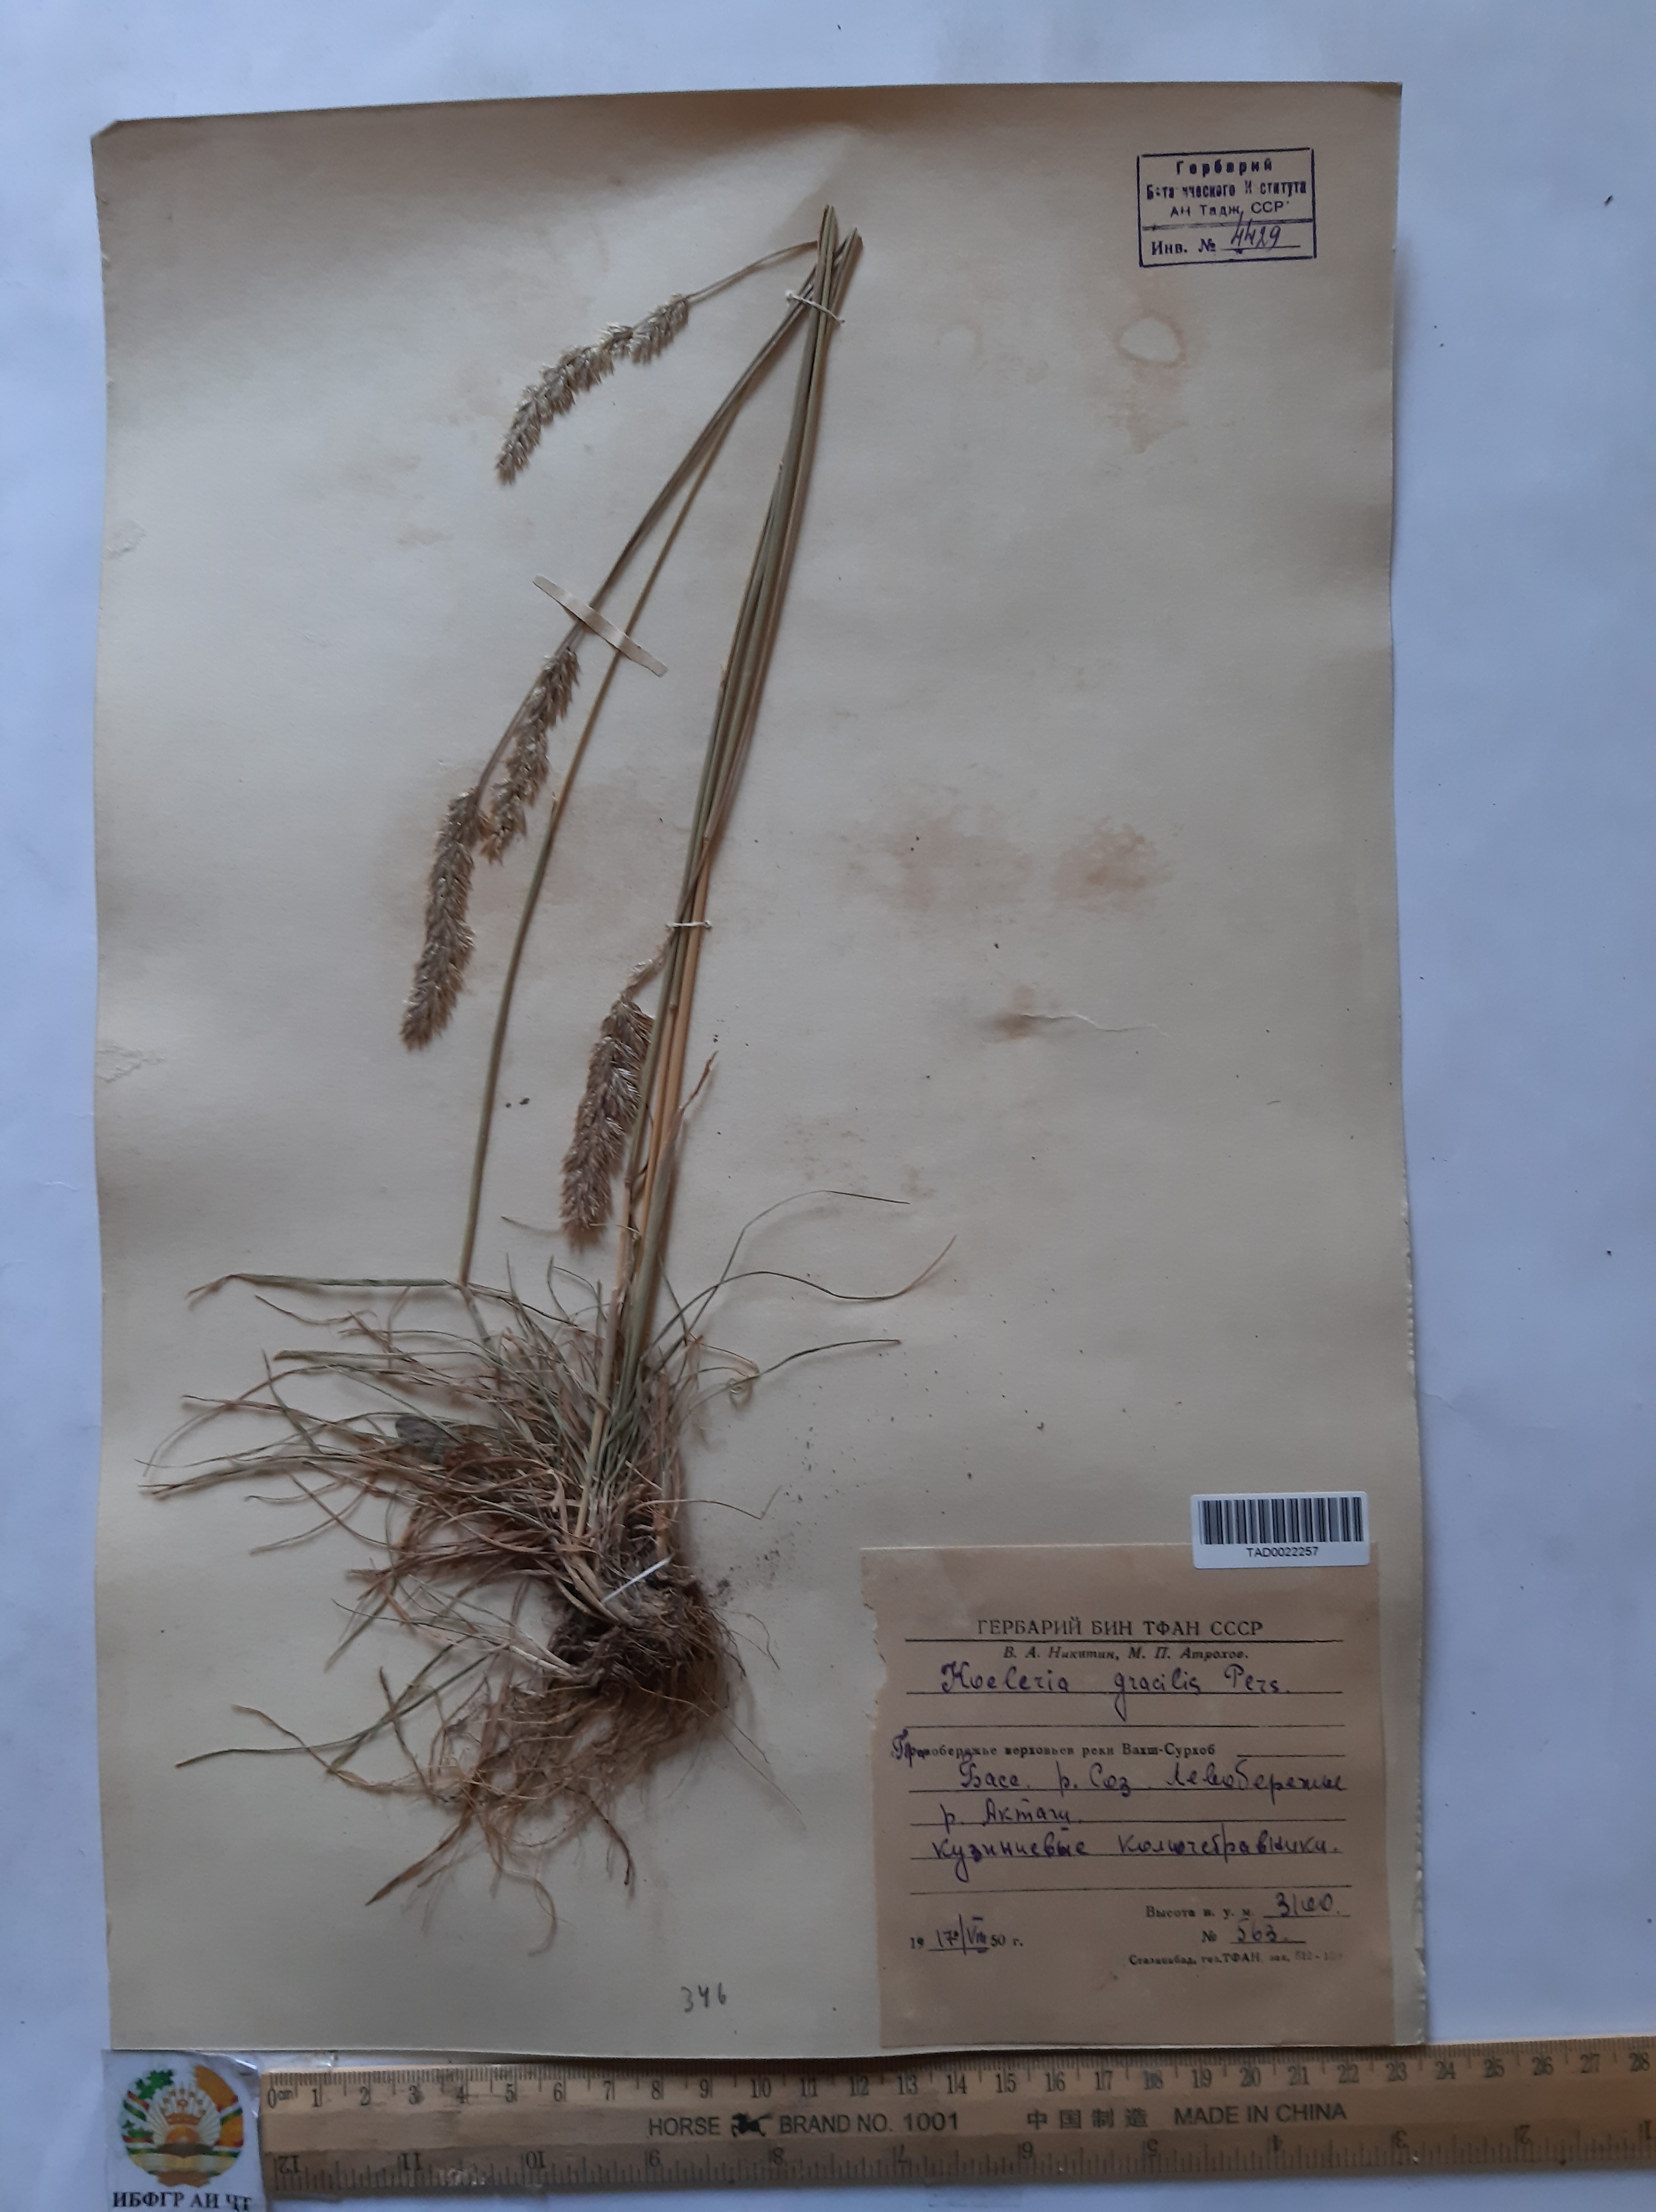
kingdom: Plantae
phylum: Tracheophyta
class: Liliopsida
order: Poales
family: Poaceae
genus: Koeleria
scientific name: Koeleria macrantha
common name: Crested hair-grass
